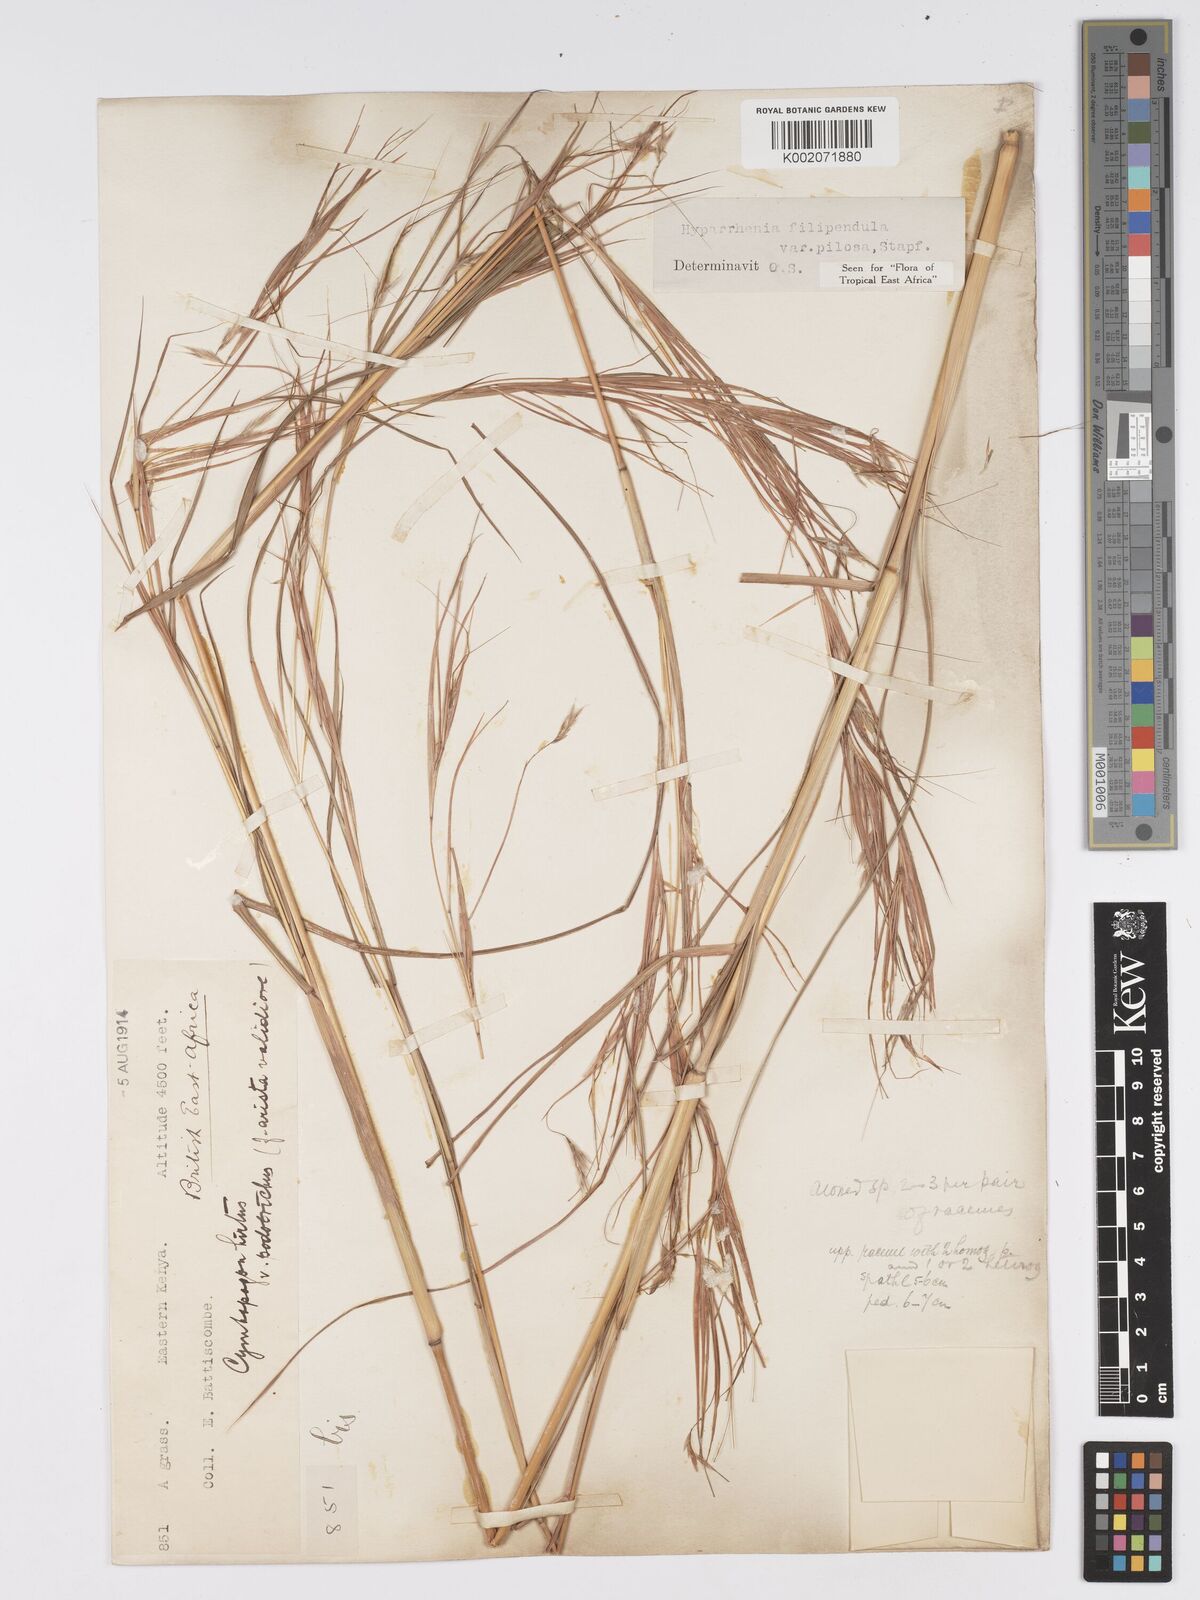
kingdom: Plantae
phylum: Tracheophyta
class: Liliopsida
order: Poales
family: Poaceae
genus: Hyparrhenia
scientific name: Hyparrhenia filipendula
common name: Tambookie grass
